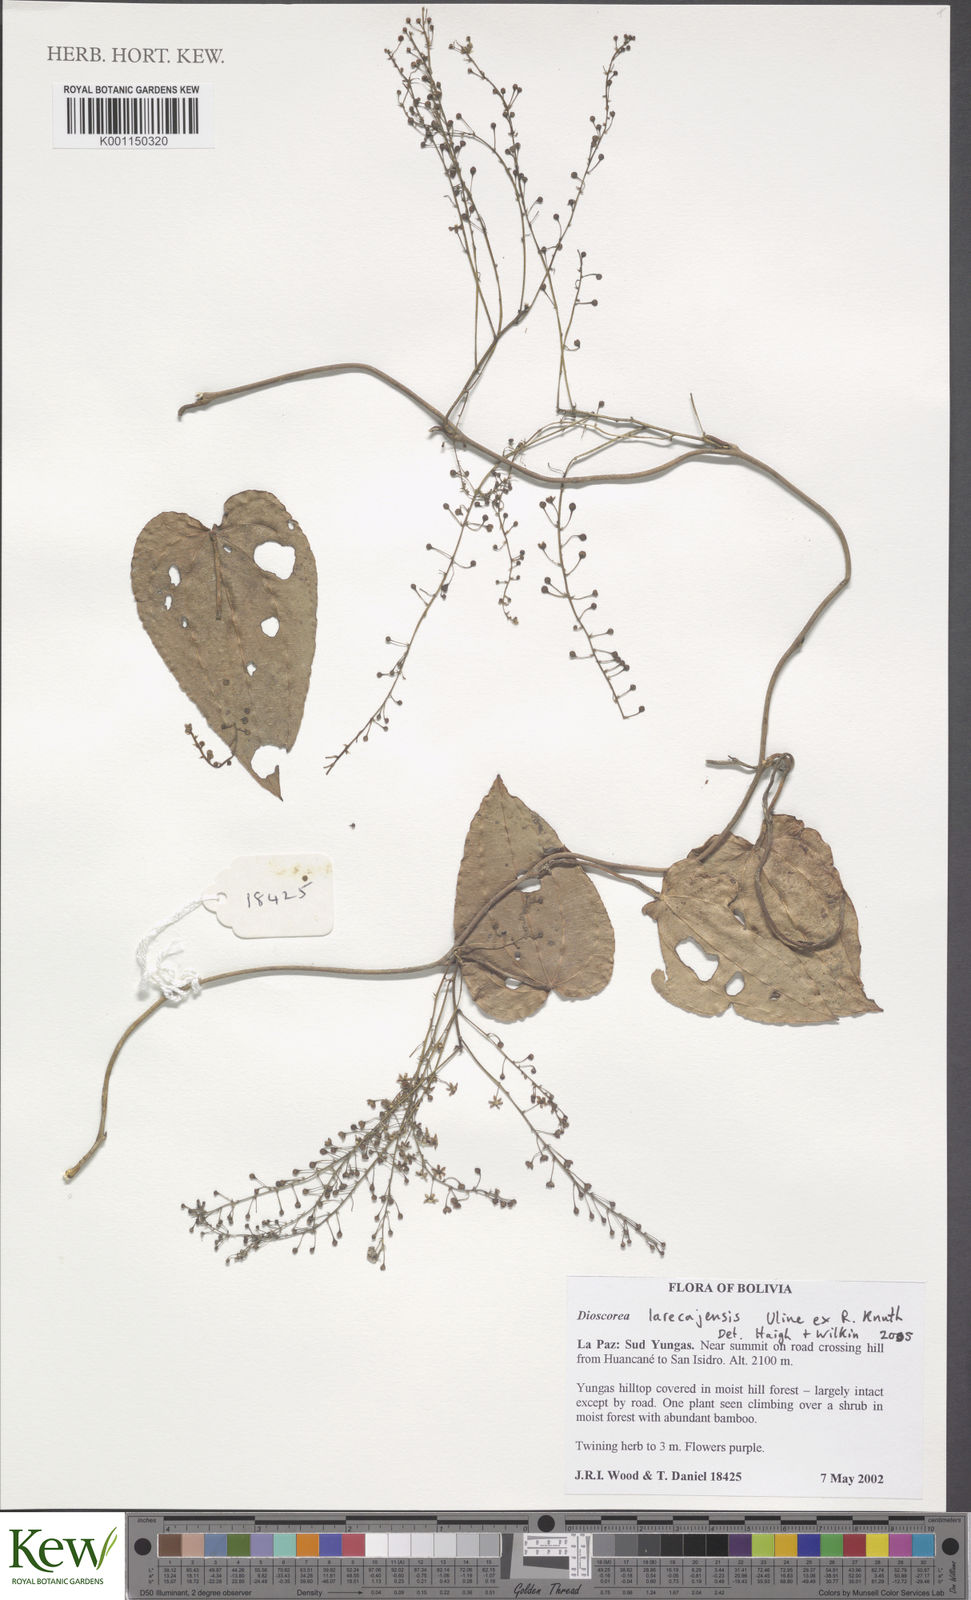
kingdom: Plantae
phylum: Tracheophyta
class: Liliopsida
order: Dioscoreales
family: Dioscoreaceae
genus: Dioscorea
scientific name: Dioscorea piperifolia
